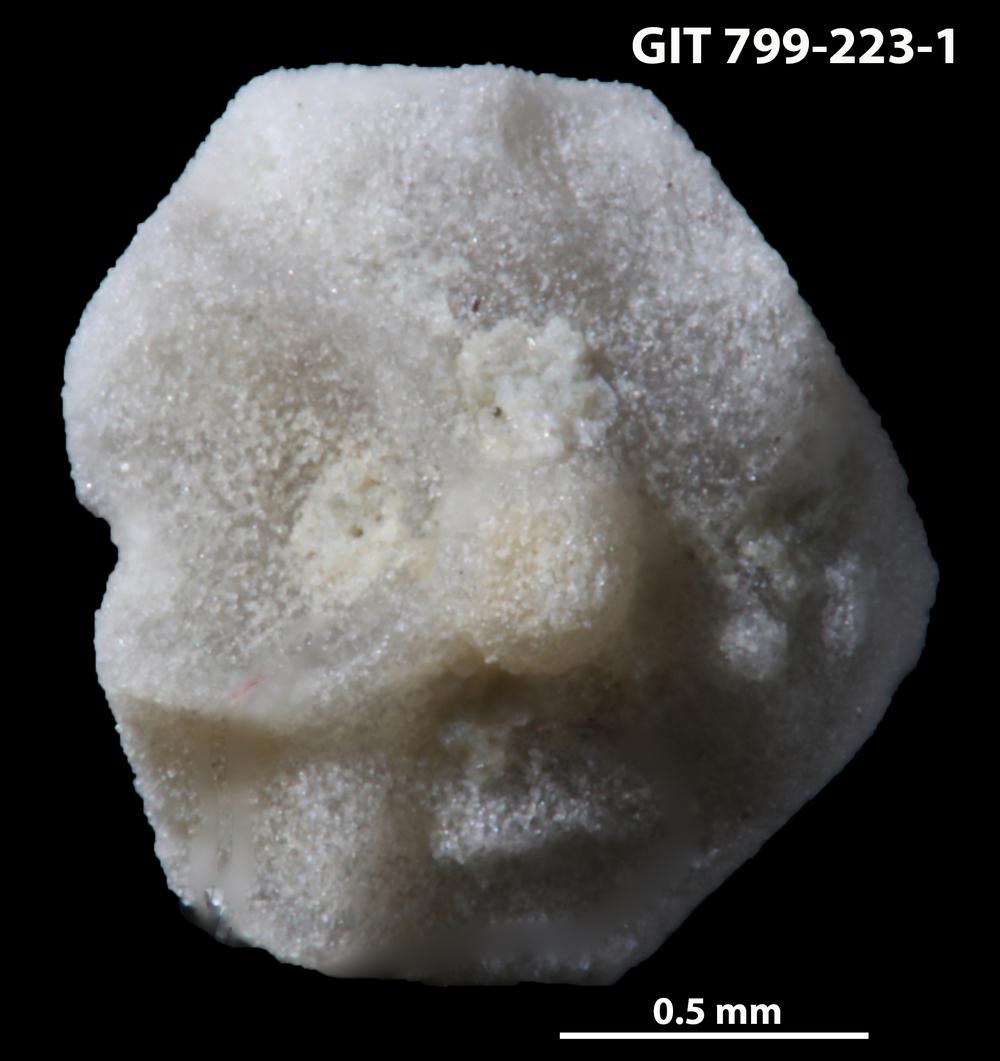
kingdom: Animalia
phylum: Echinodermata
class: Echinoidea
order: Bothriocidaroida
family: Bothriocidaridae
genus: Neobothriocidaris
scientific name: Neobothriocidaris
